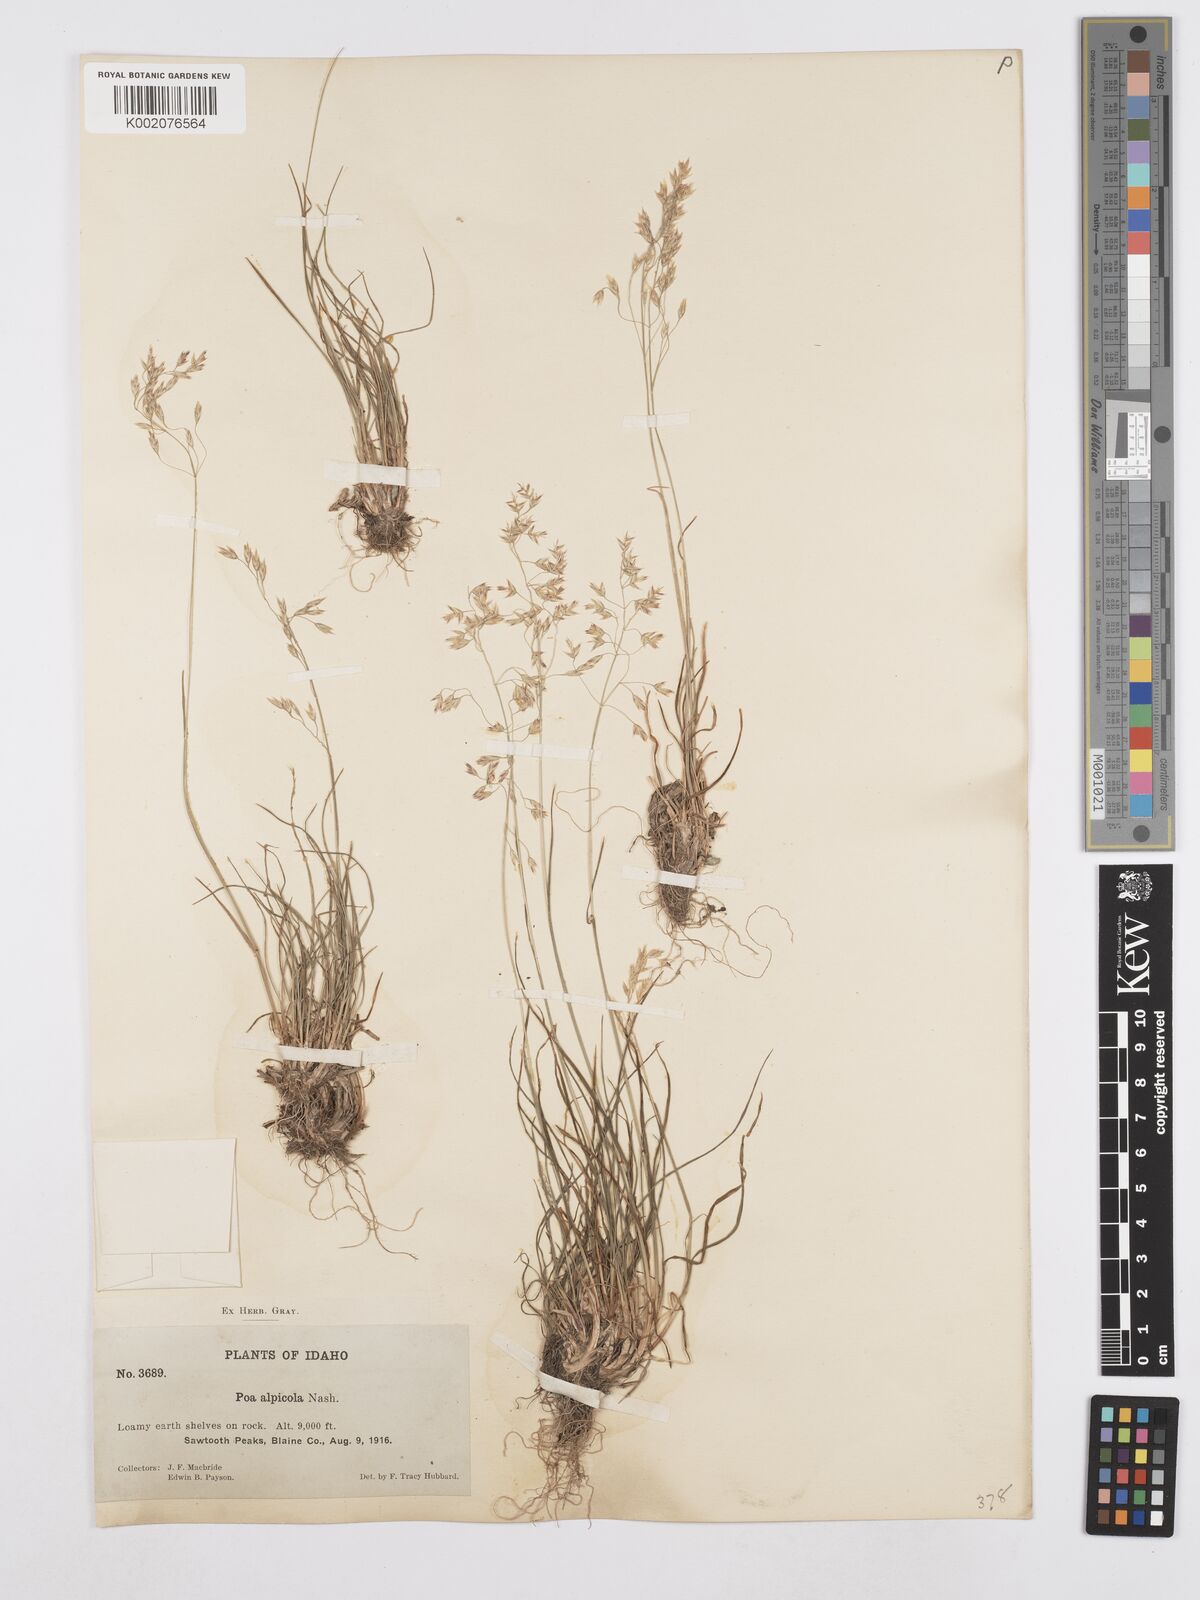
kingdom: Plantae
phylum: Tracheophyta
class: Liliopsida
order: Poales
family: Poaceae
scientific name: Poaceae
